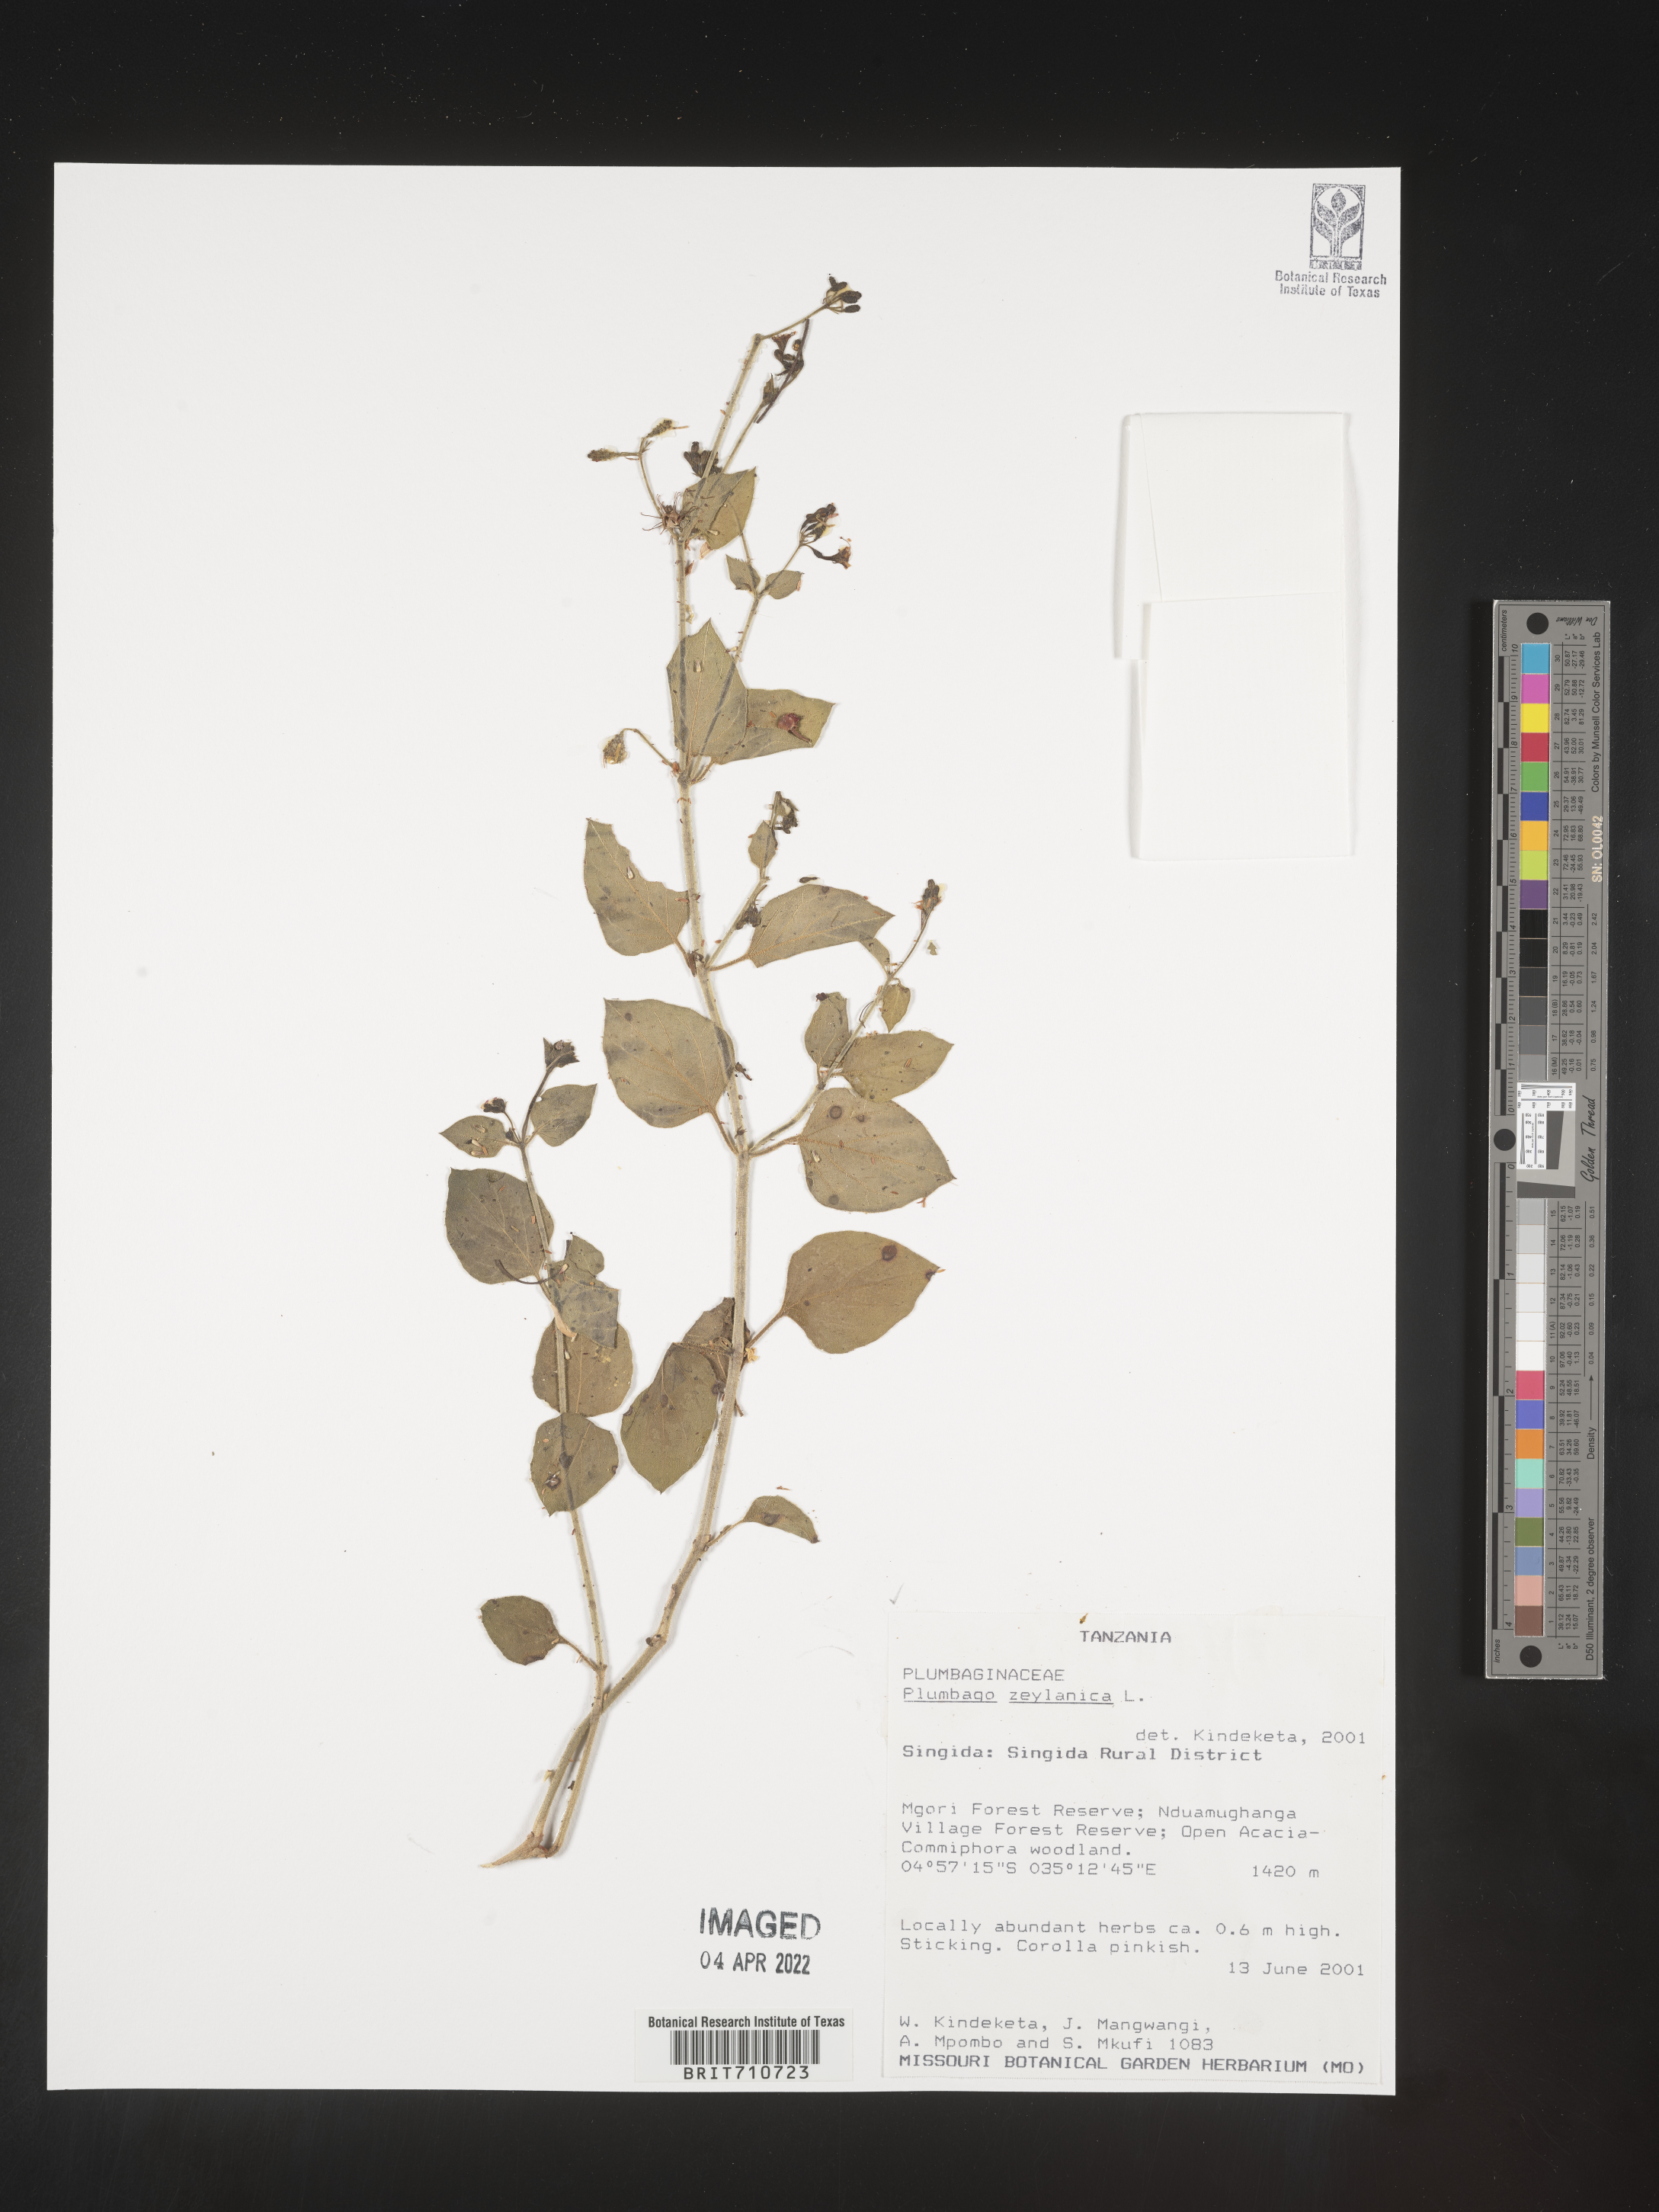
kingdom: Plantae
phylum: Tracheophyta
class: Magnoliopsida
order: Caryophyllales
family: Plumbaginaceae
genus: Plumbago
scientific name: Plumbago
